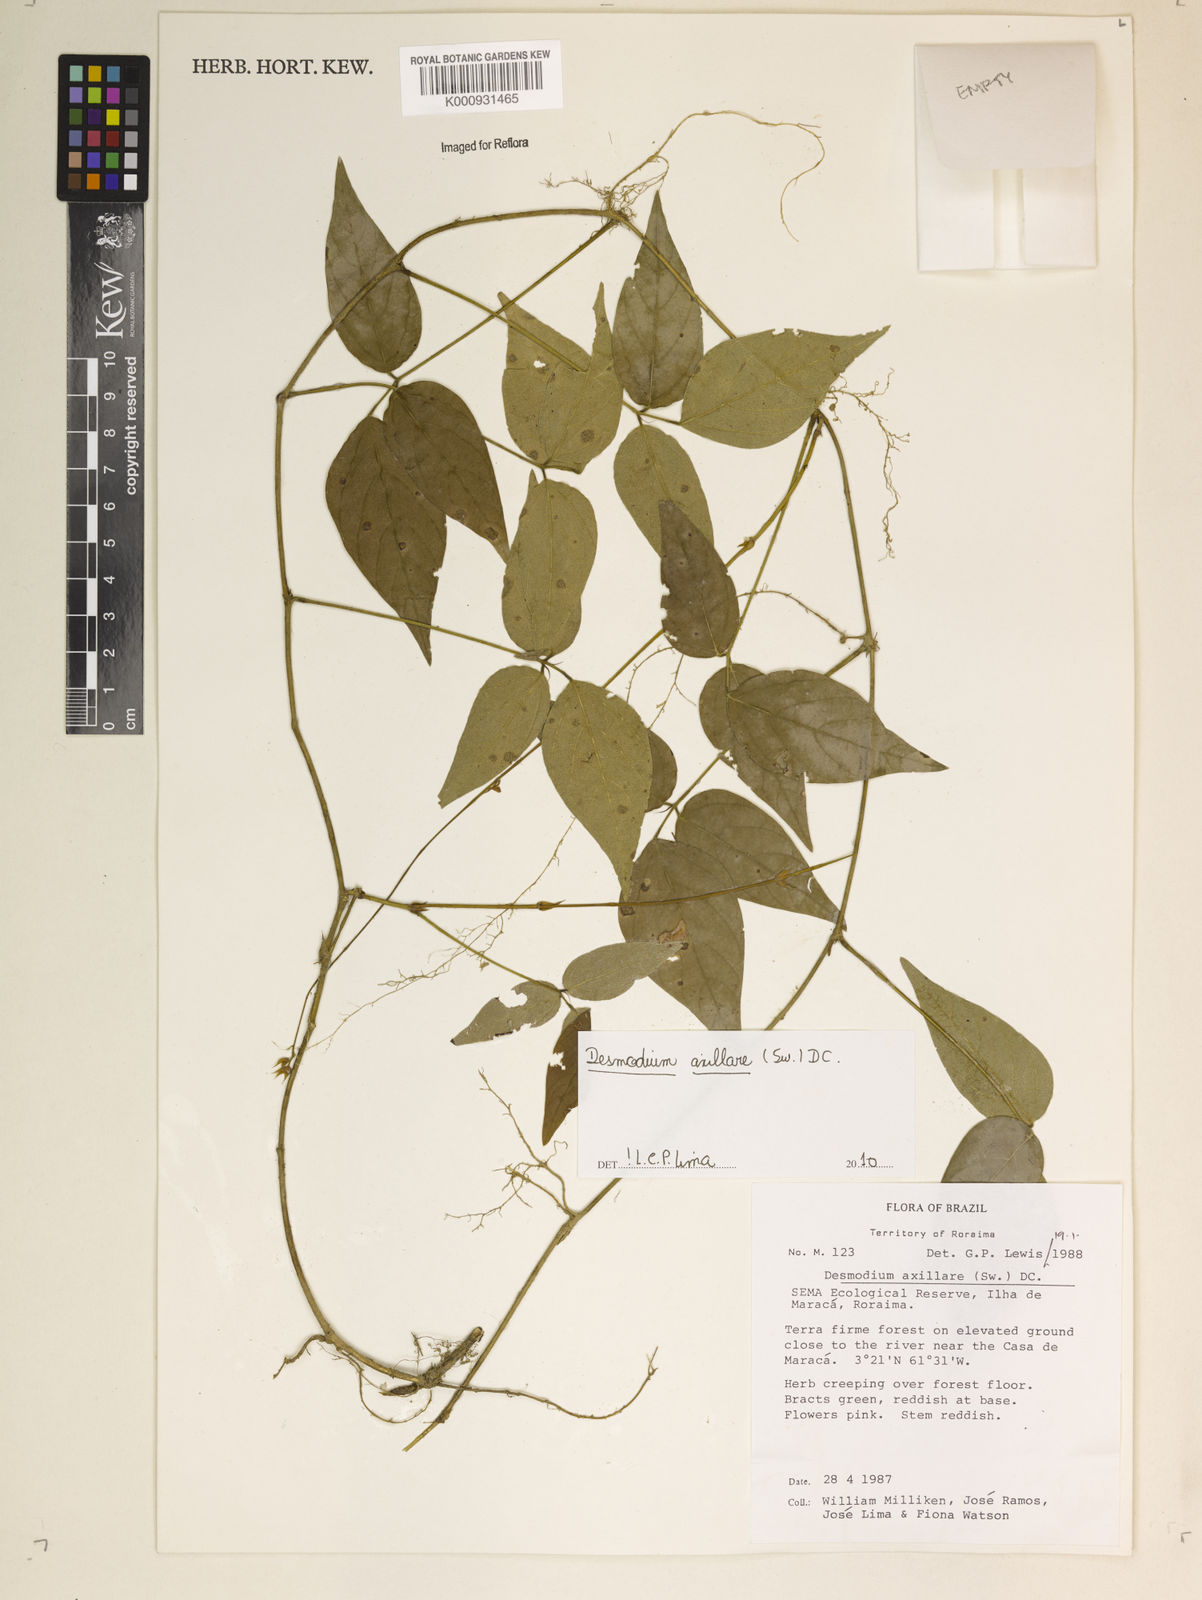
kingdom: Plantae
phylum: Tracheophyta
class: Magnoliopsida
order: Fabales
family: Fabaceae
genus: Desmodium
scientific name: Desmodium axillare
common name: Wire with
